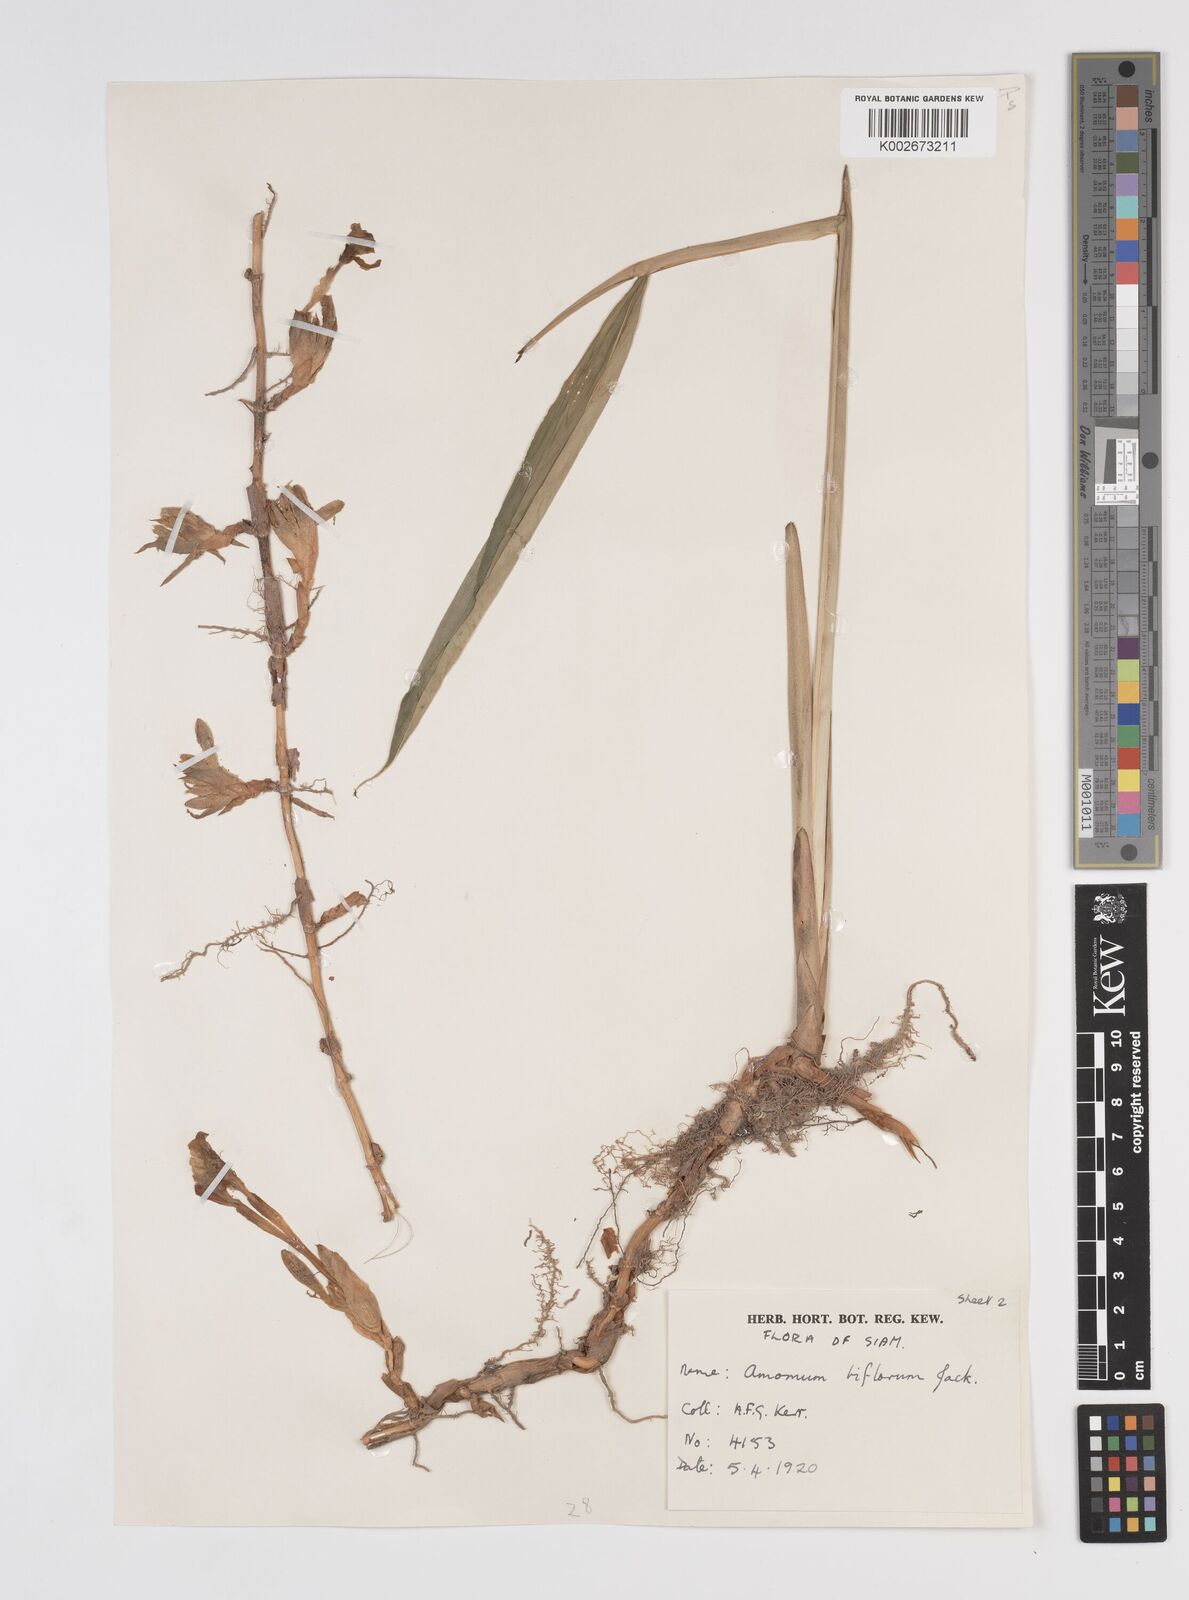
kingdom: Plantae
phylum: Tracheophyta
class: Liliopsida
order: Zingiberales
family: Zingiberaceae
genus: Wurfbainia
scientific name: Wurfbainia biflora
